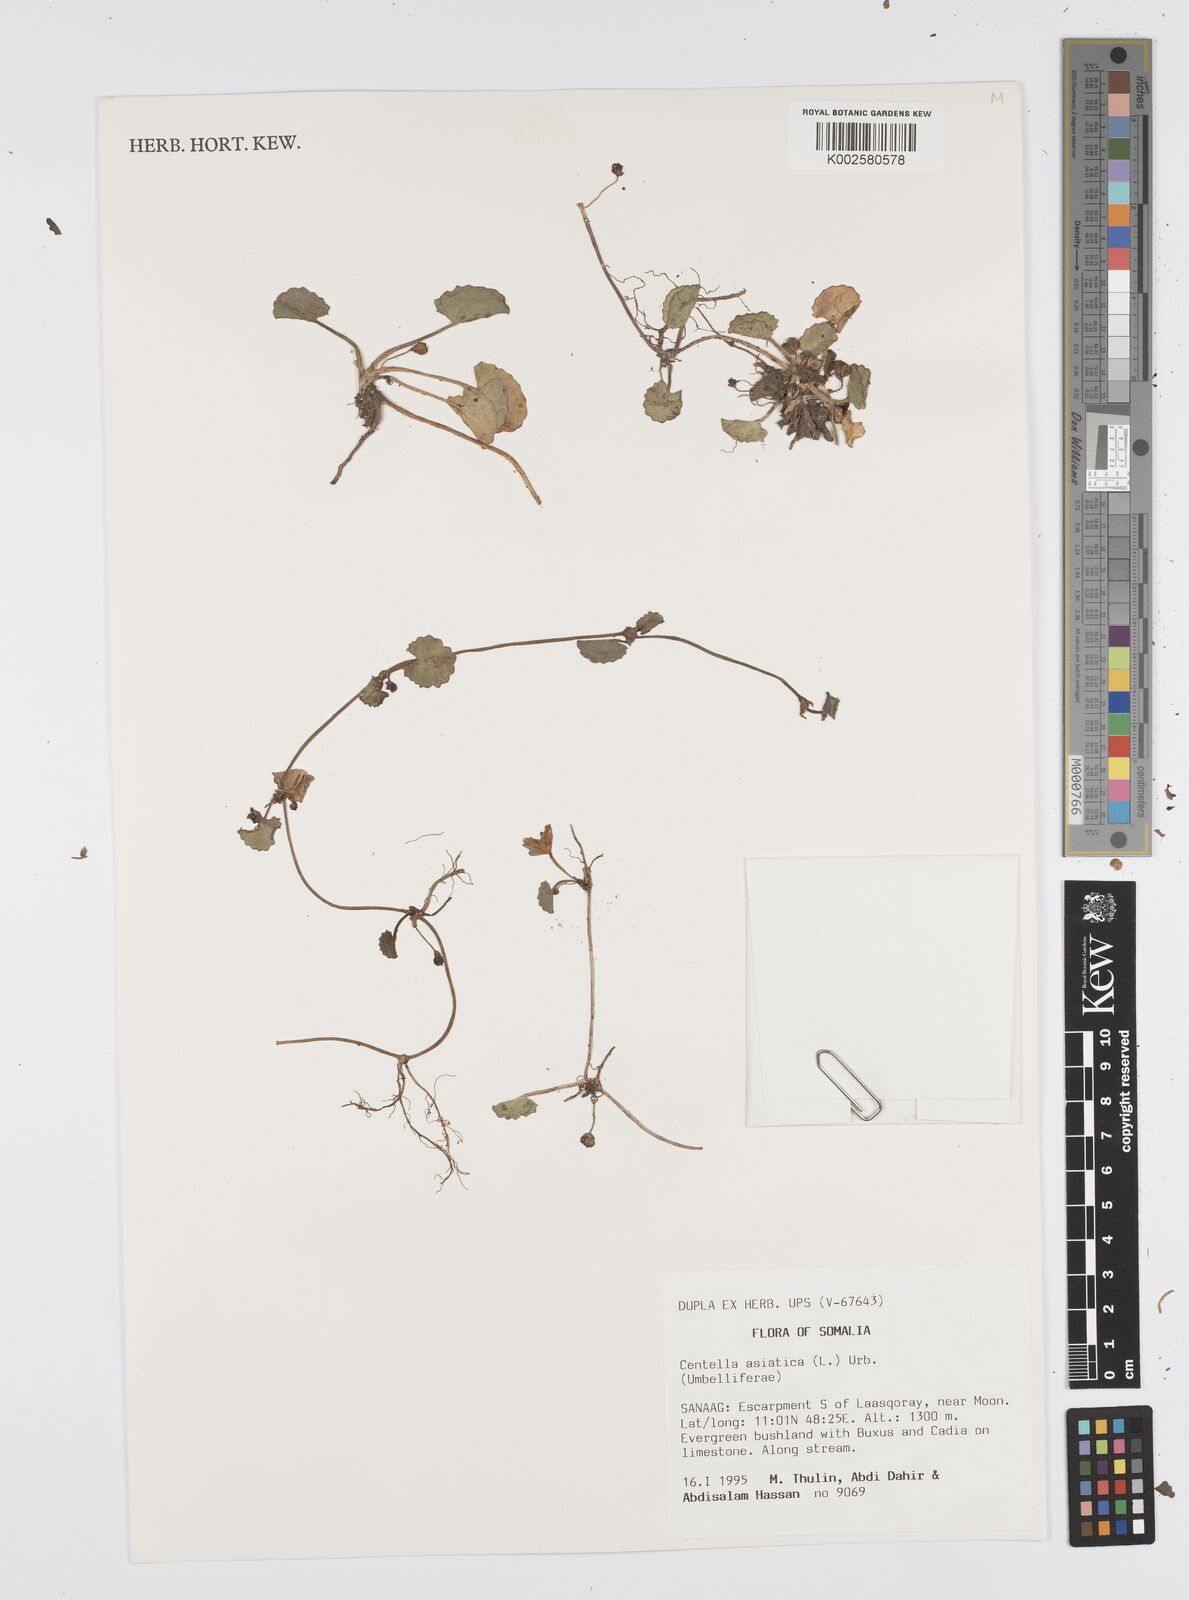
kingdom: Plantae
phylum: Tracheophyta
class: Magnoliopsida
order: Apiales
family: Apiaceae
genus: Centella
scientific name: Centella asiatica
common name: Spadeleaf
